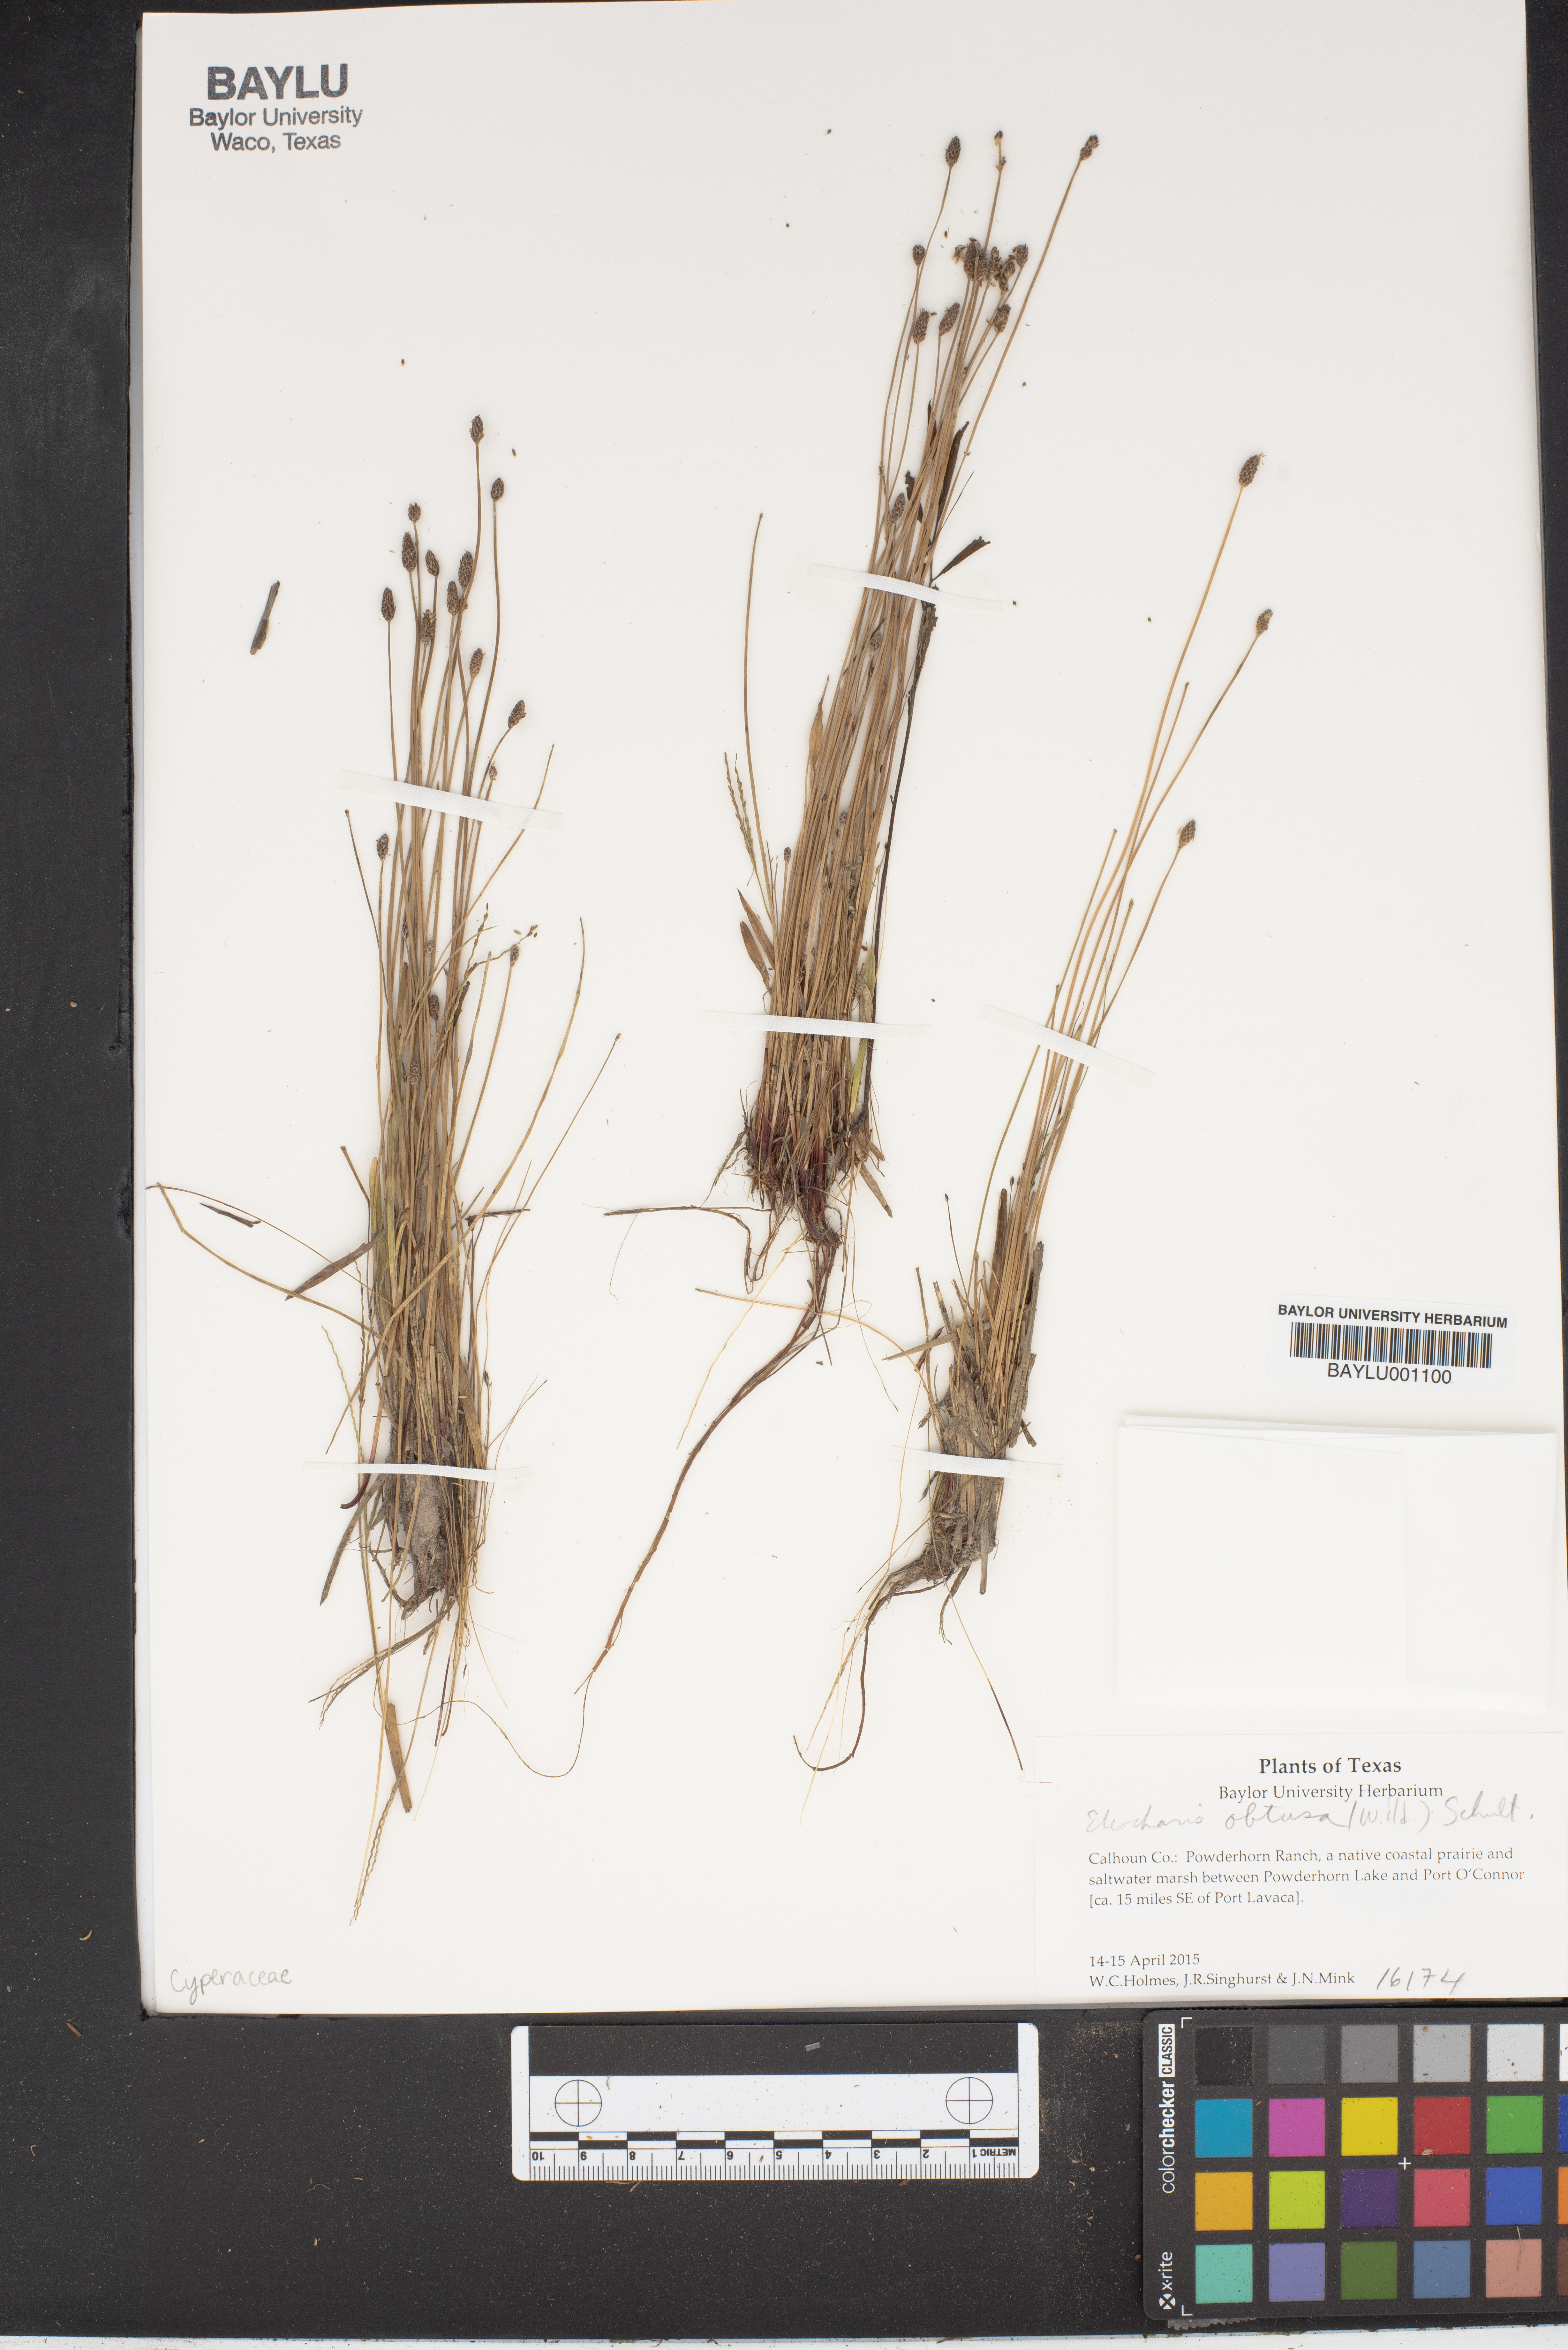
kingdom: Plantae
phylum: Tracheophyta
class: Liliopsida
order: Poales
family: Cyperaceae
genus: Eleocharis
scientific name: Eleocharis obtusa
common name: Blunt spikerush
